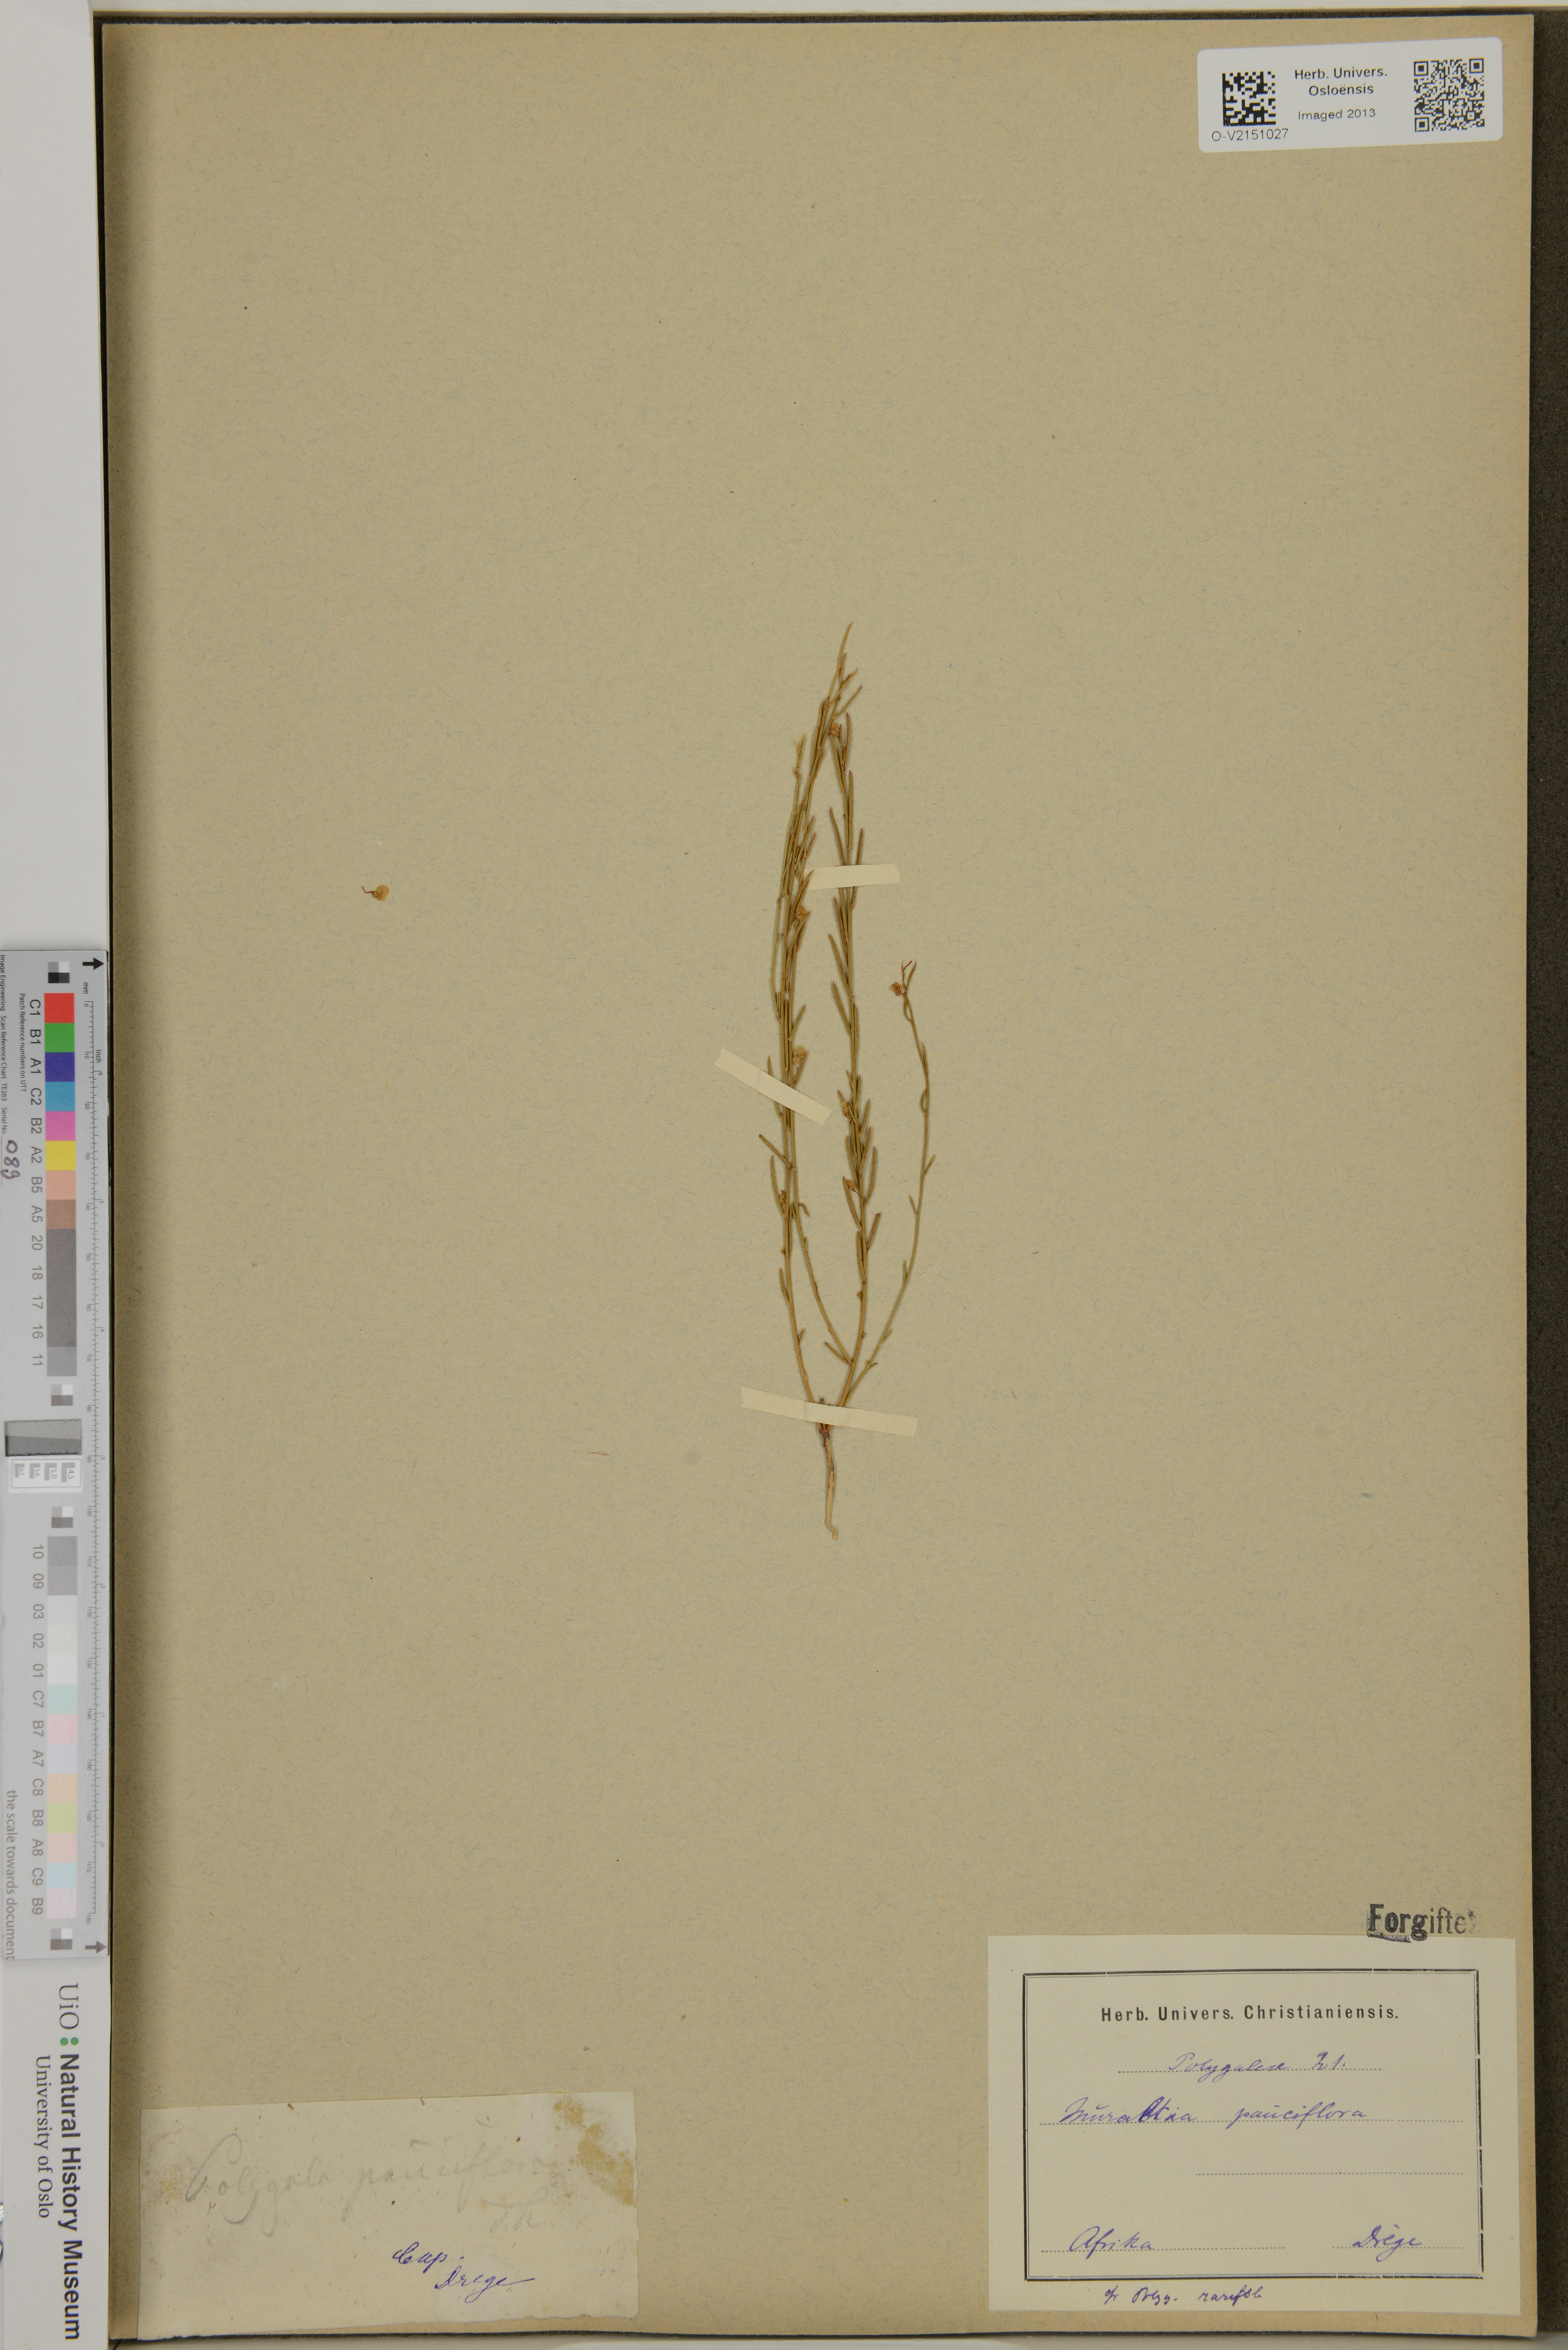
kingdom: Plantae
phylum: Tracheophyta
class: Magnoliopsida
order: Fabales
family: Polygalaceae
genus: Muraltia
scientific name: Muraltia pauciflora
